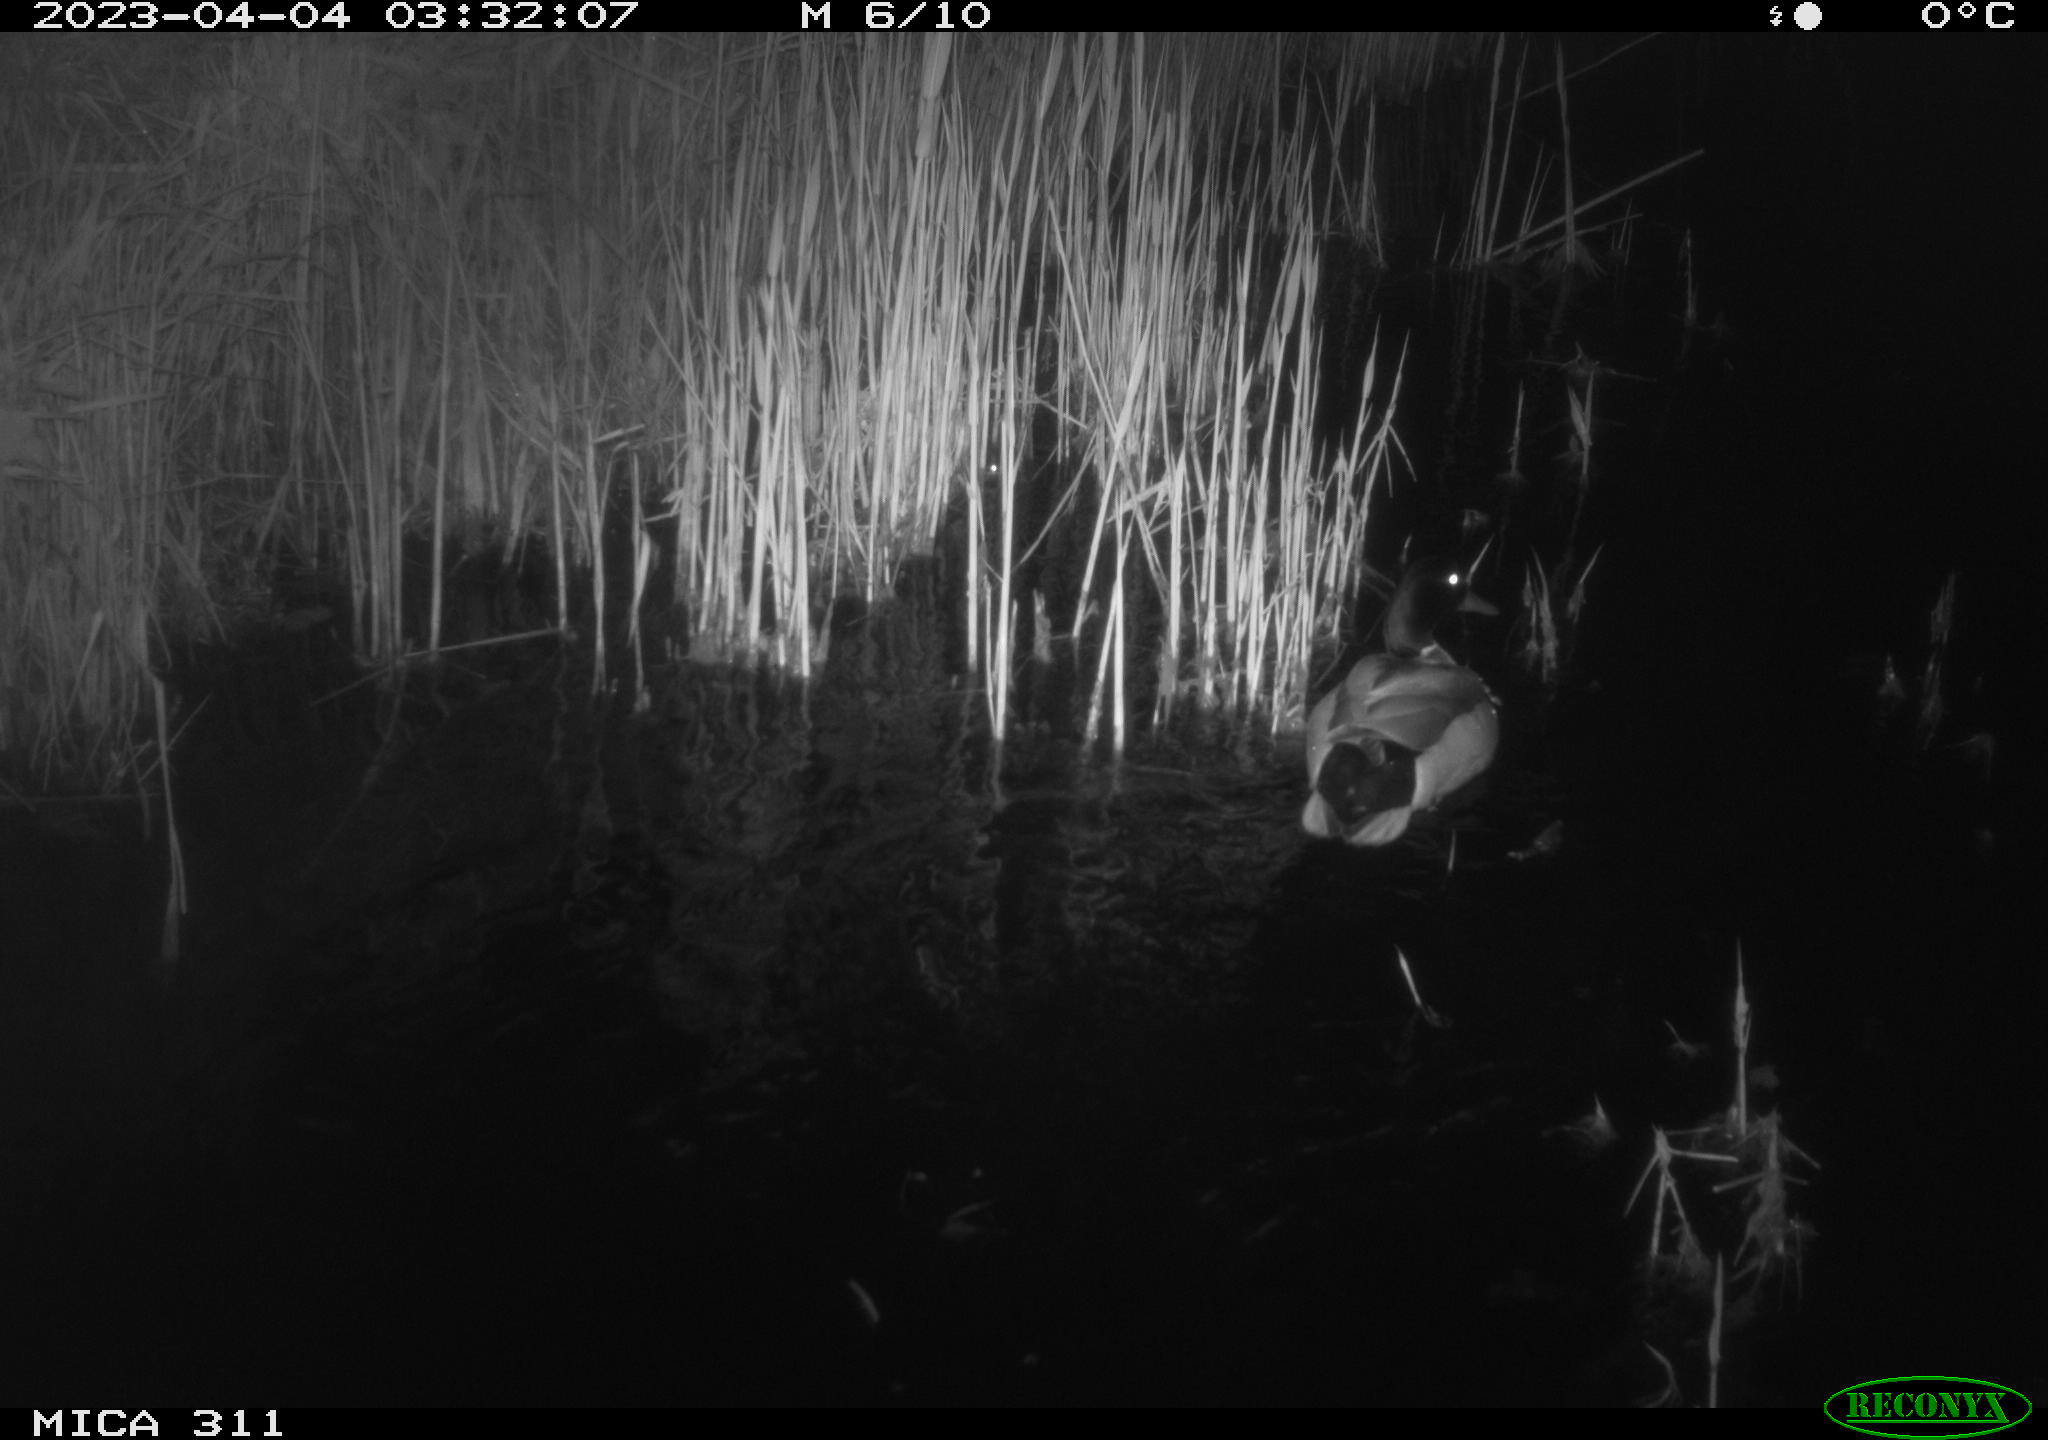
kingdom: Animalia
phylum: Chordata
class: Aves
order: Anseriformes
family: Anatidae
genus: Anas
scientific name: Anas
